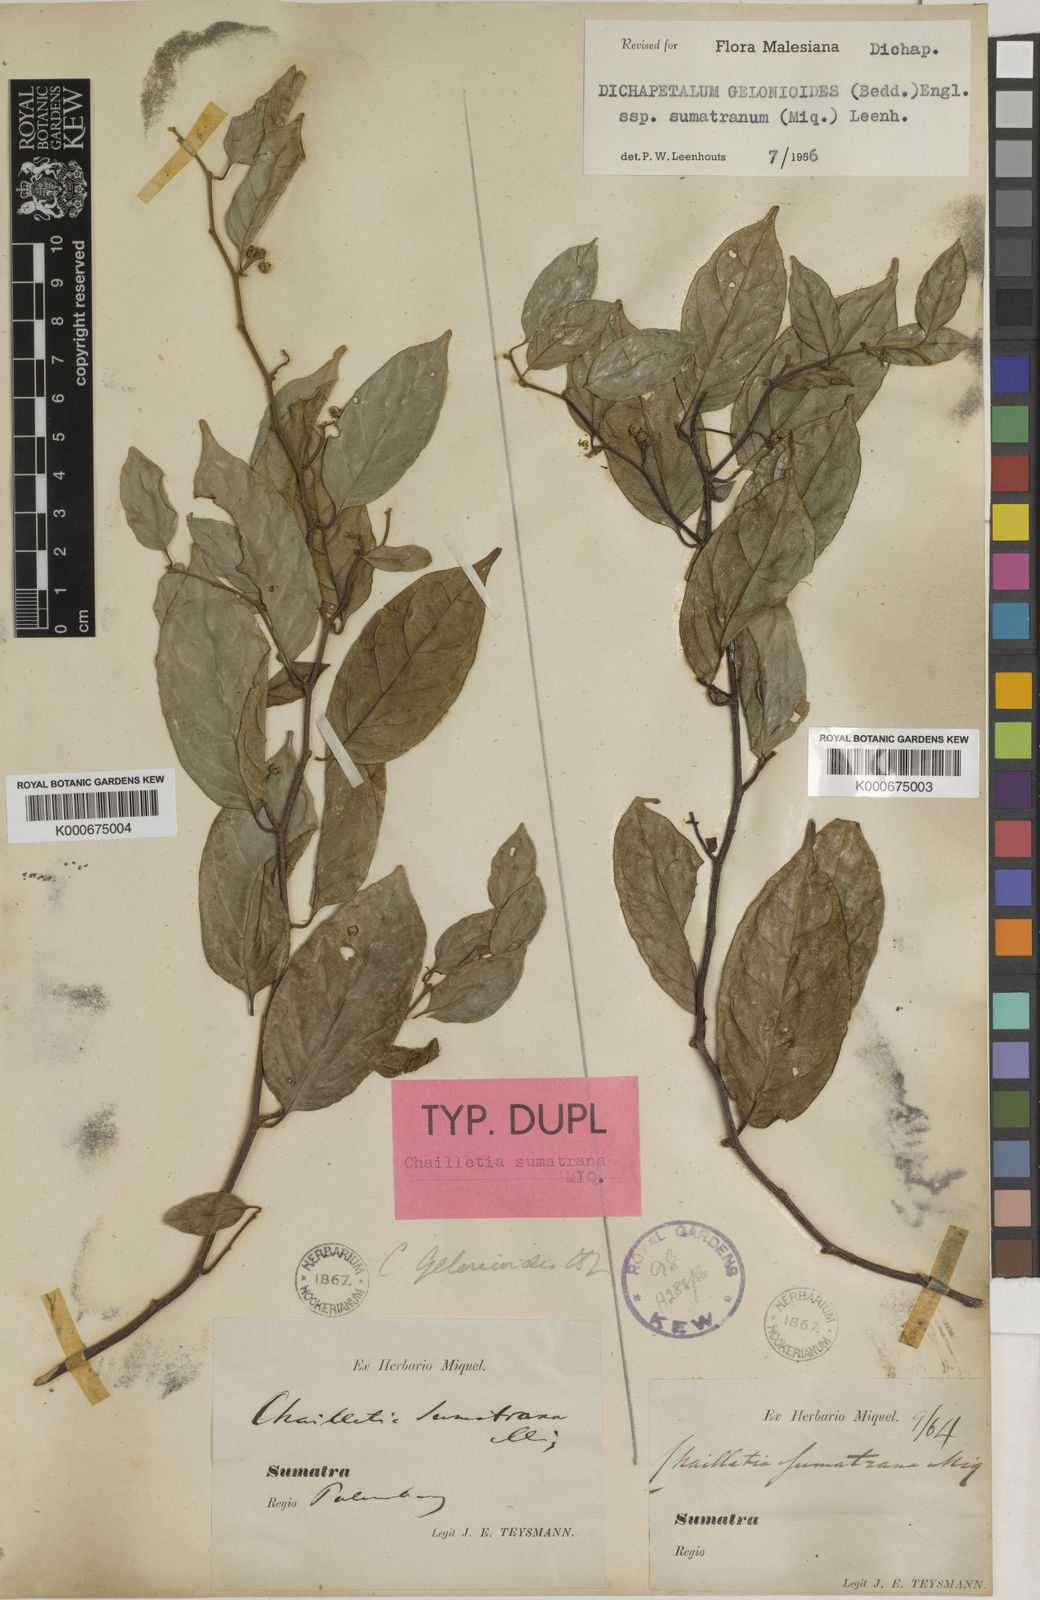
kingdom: Plantae
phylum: Tracheophyta
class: Magnoliopsida
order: Malpighiales
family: Dichapetalaceae
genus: Dichapetalum
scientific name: Dichapetalum gelonioides
